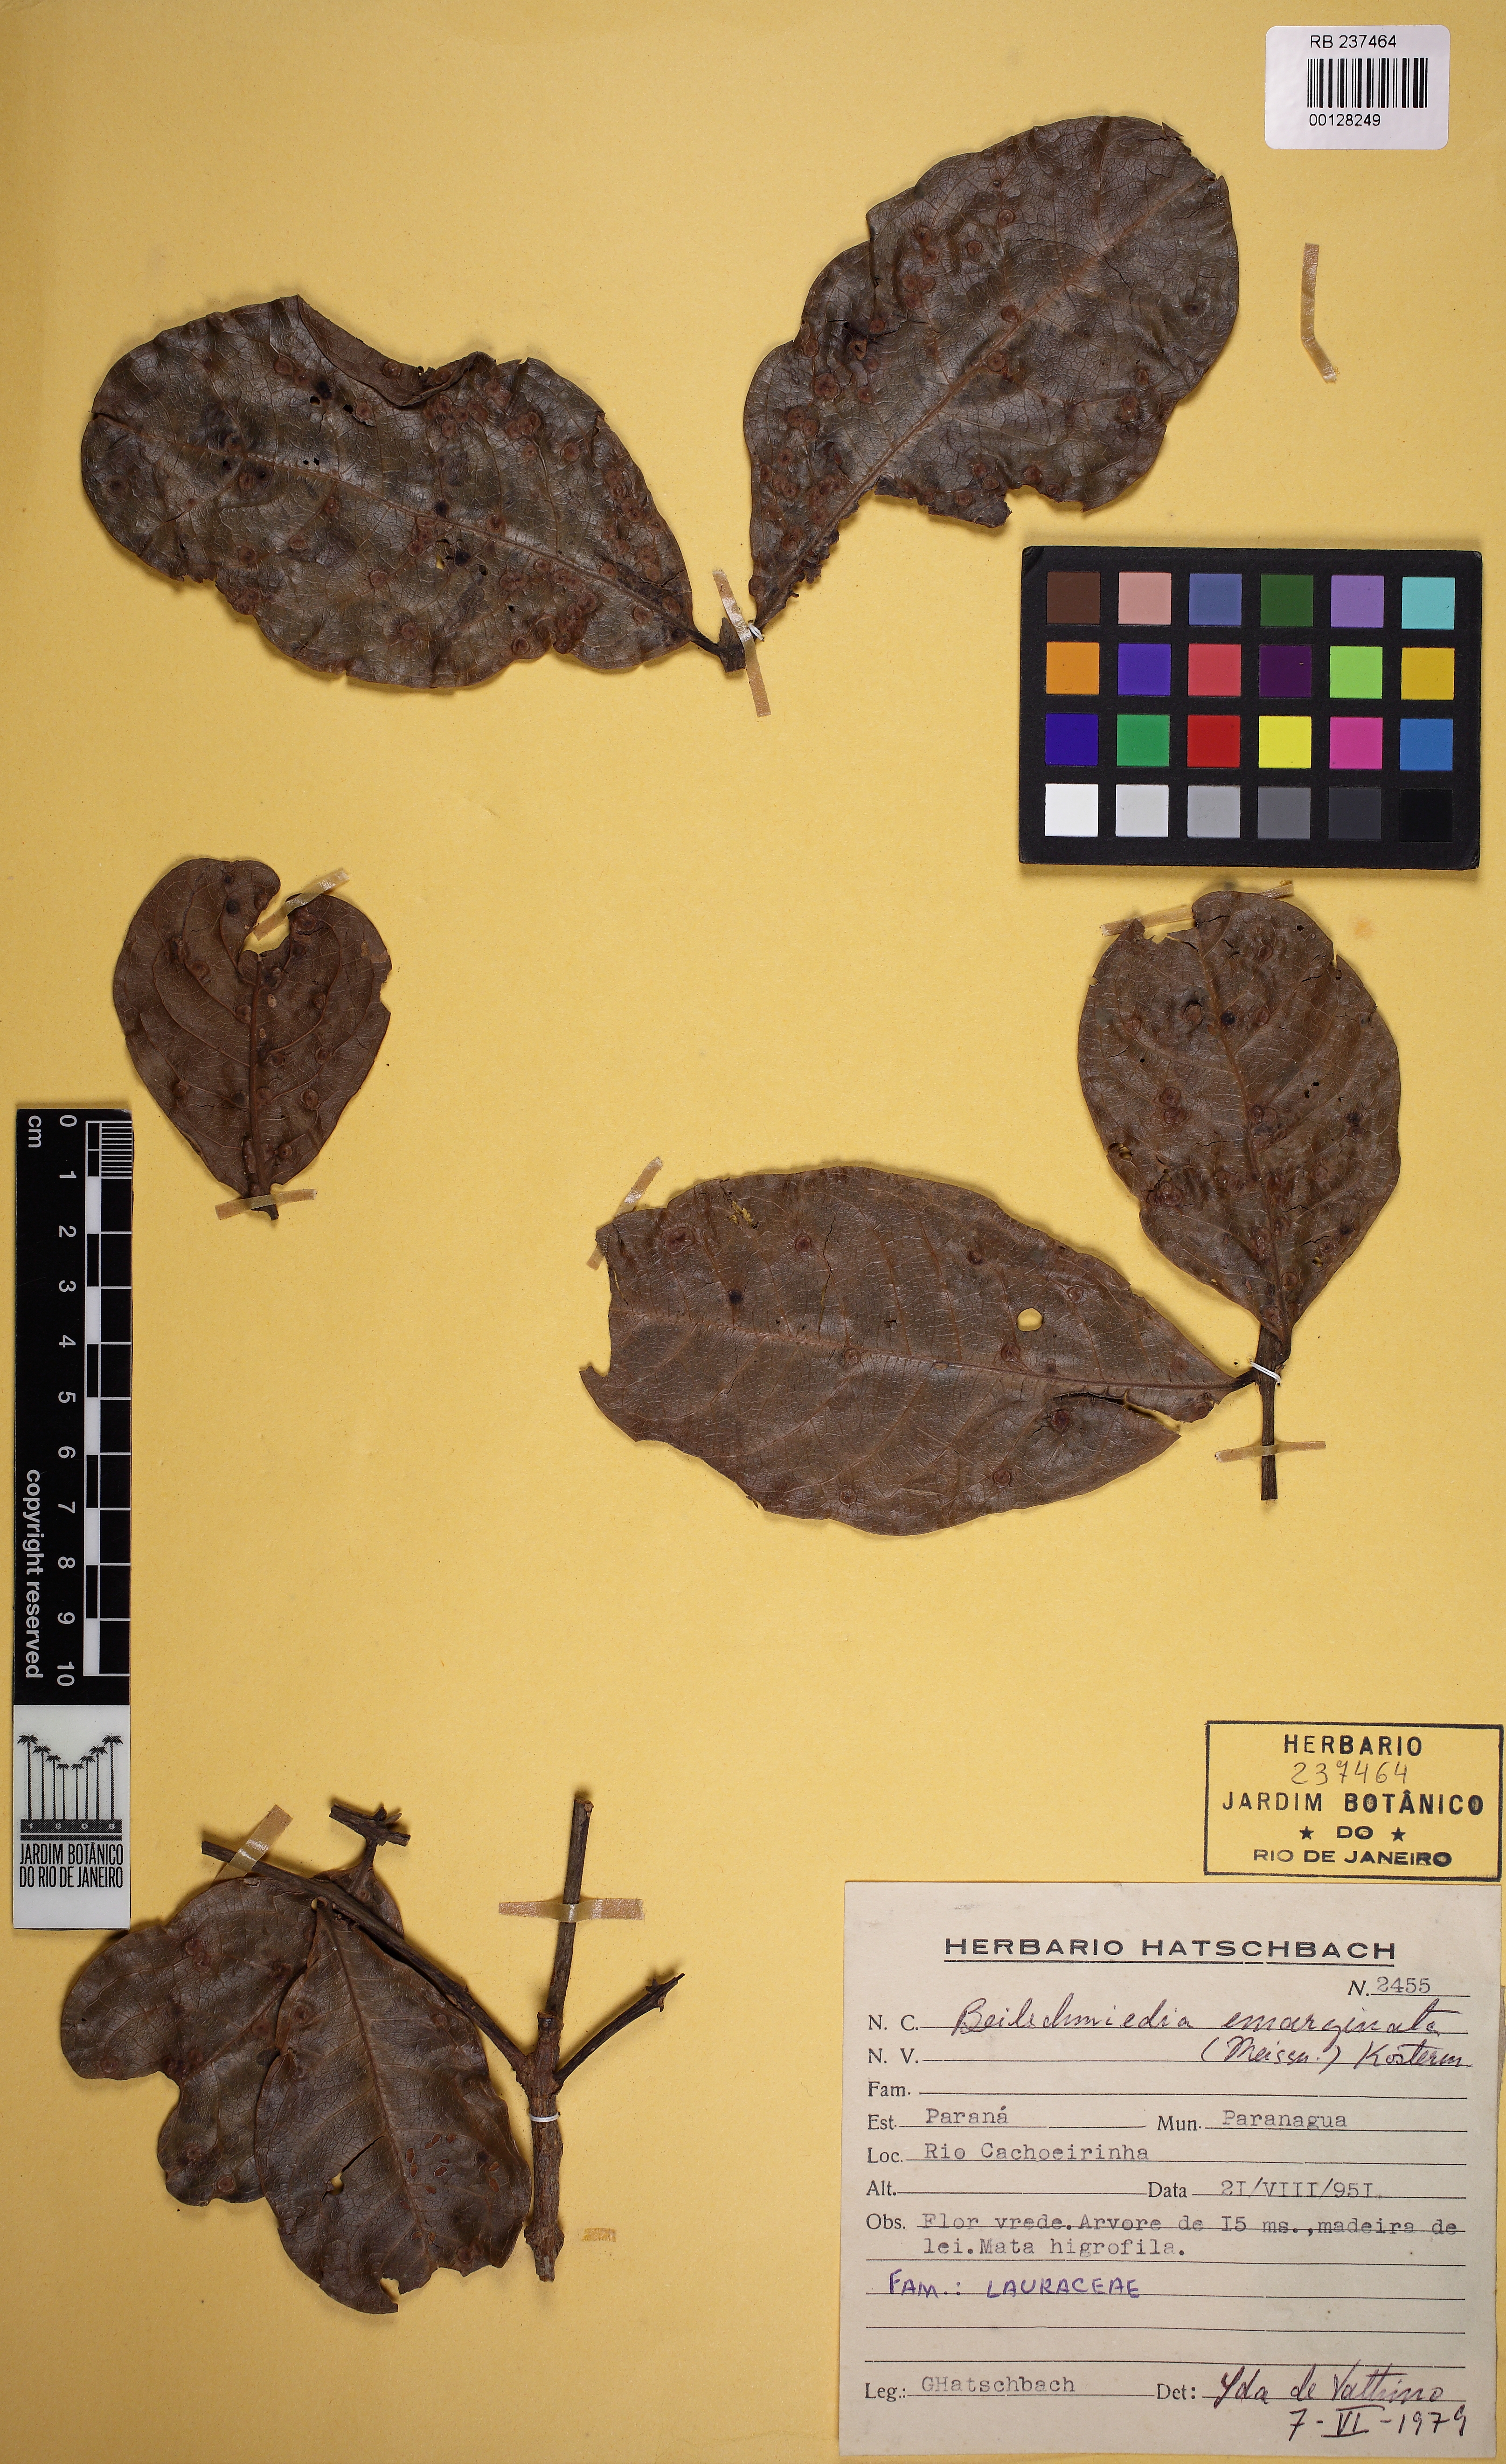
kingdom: Plantae
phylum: Tracheophyta
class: Magnoliopsida
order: Laurales
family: Lauraceae
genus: Beilschmiedia
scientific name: Beilschmiedia emarginata
